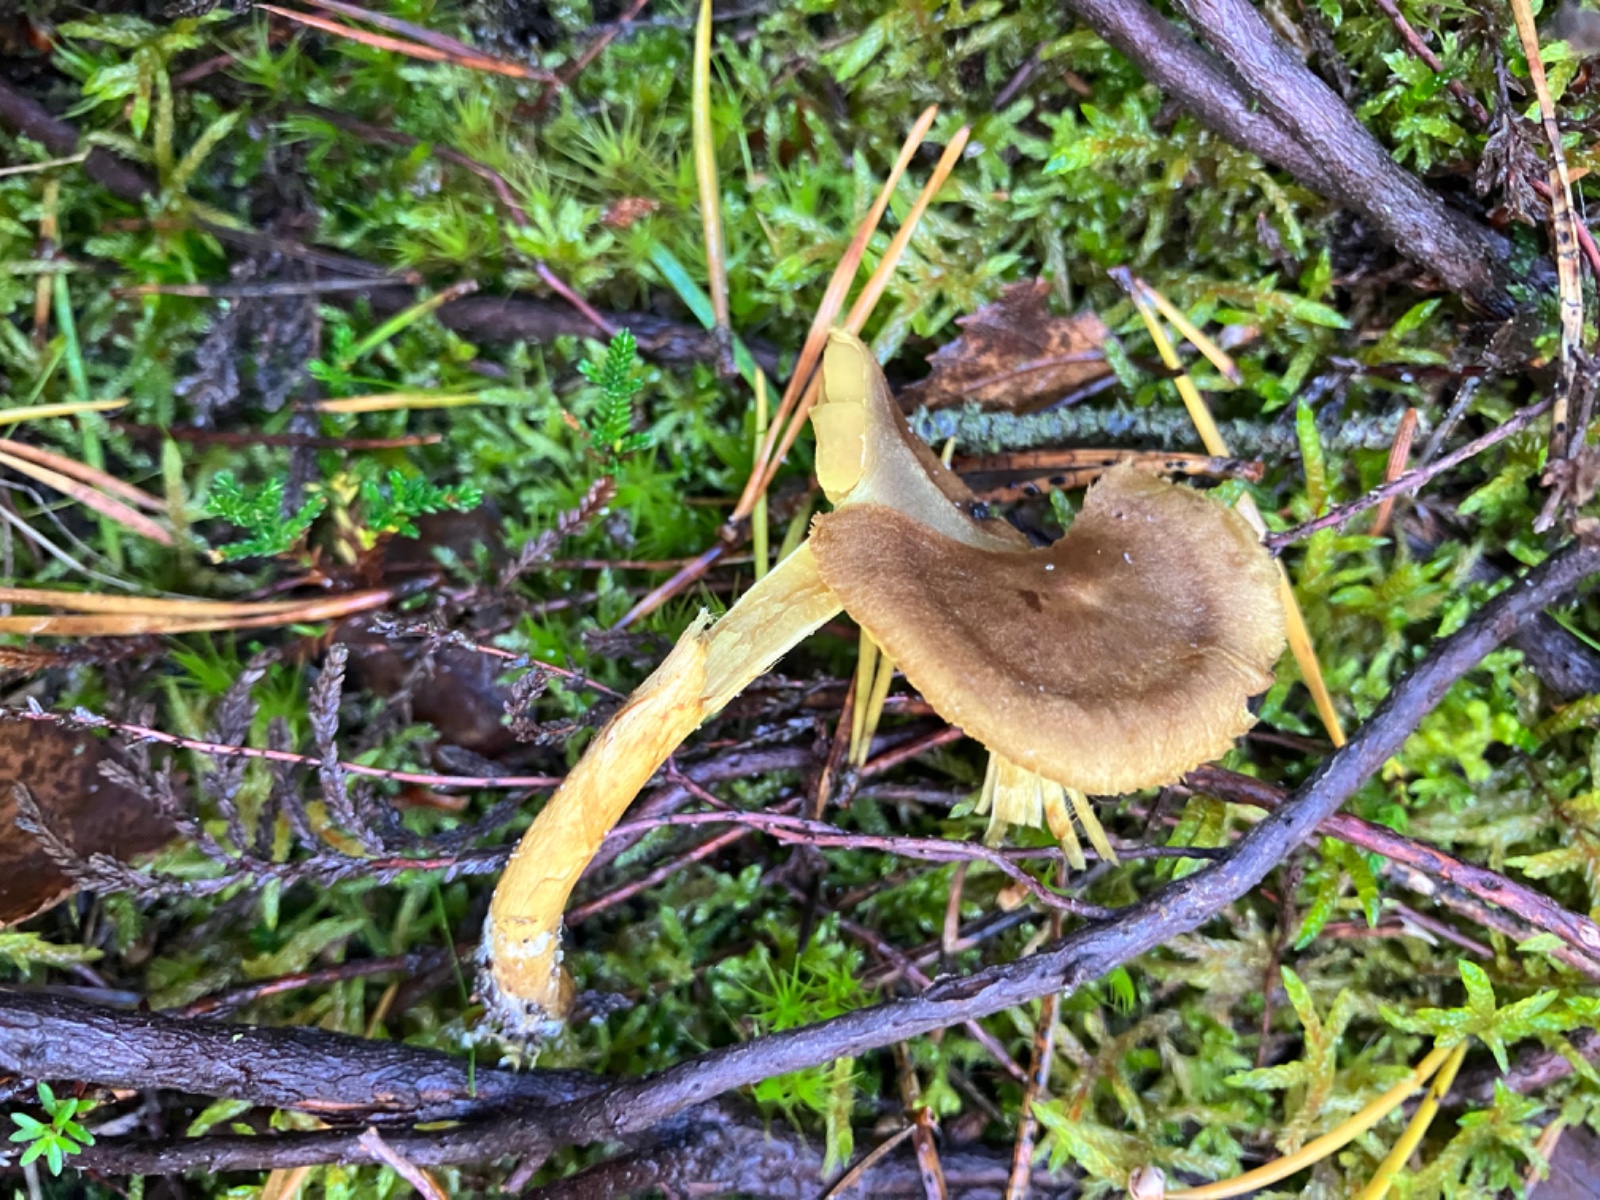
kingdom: Fungi
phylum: Basidiomycota
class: Agaricomycetes
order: Agaricales
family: Cortinariaceae
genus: Cortinarius
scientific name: Cortinarius
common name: gulbladet slørhat
